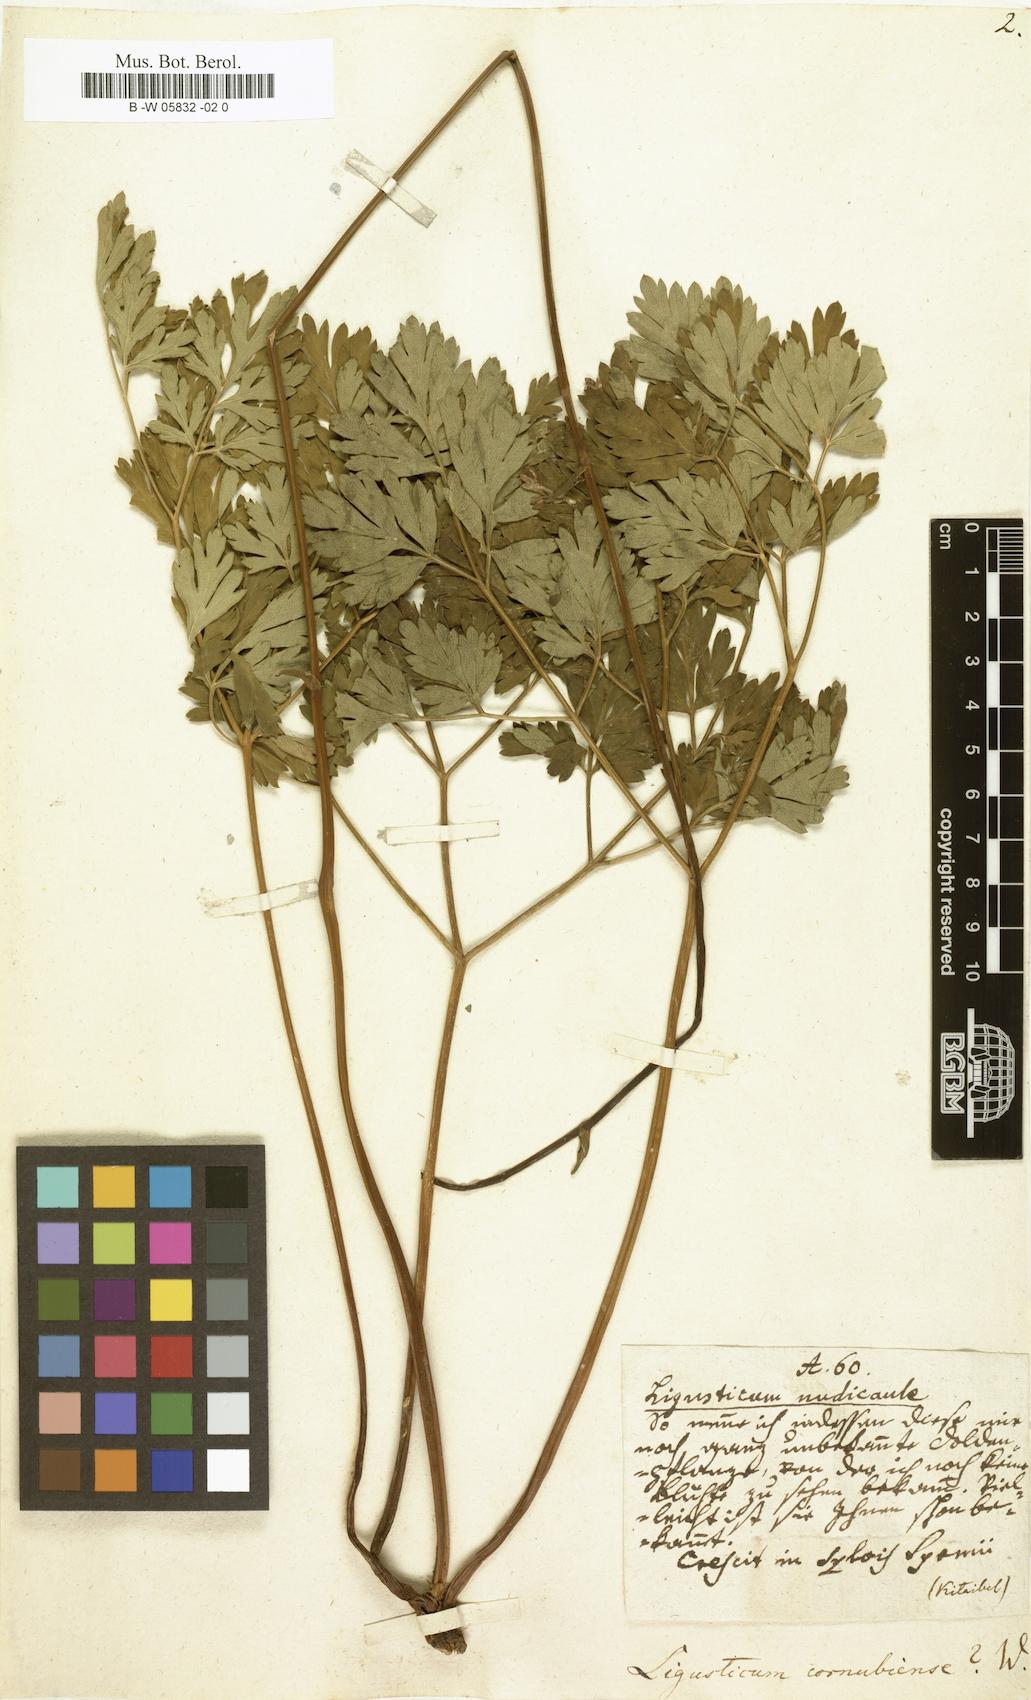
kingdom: Plantae
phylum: Tracheophyta
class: Magnoliopsida
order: Apiales
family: Apiaceae
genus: Physospermum
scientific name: Physospermum cornubiense
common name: Bladderseed
